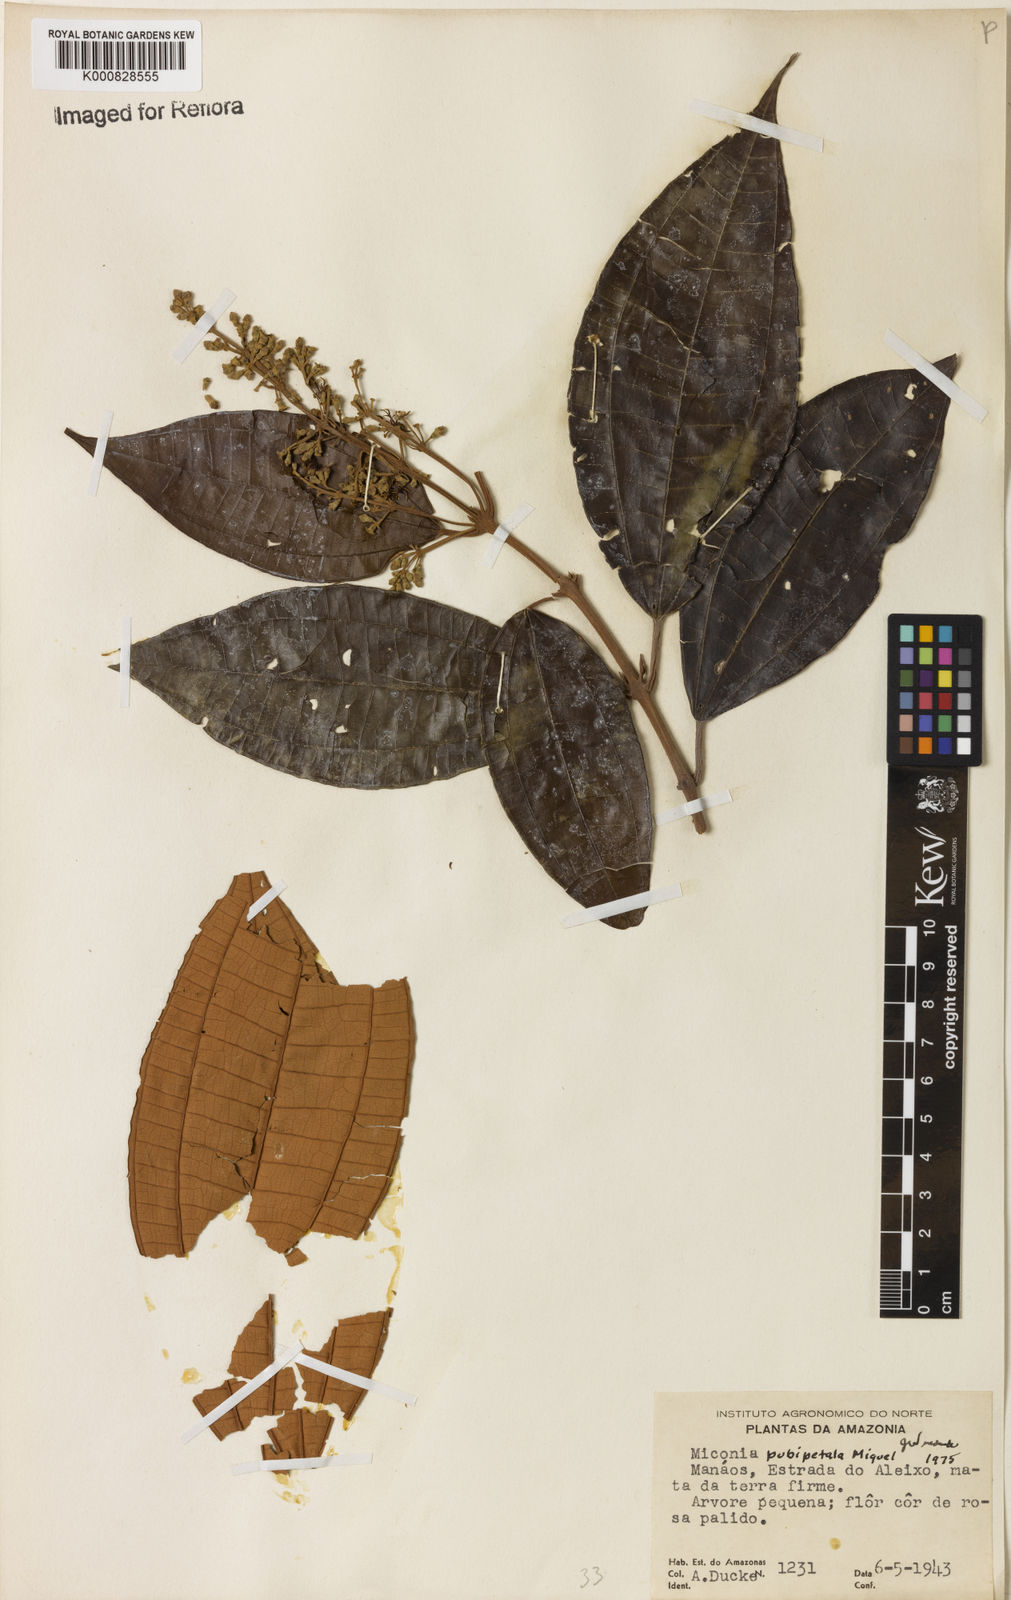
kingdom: Plantae
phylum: Tracheophyta
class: Magnoliopsida
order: Myrtales
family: Melastomataceae
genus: Miconia
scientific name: Miconia pubipetala
